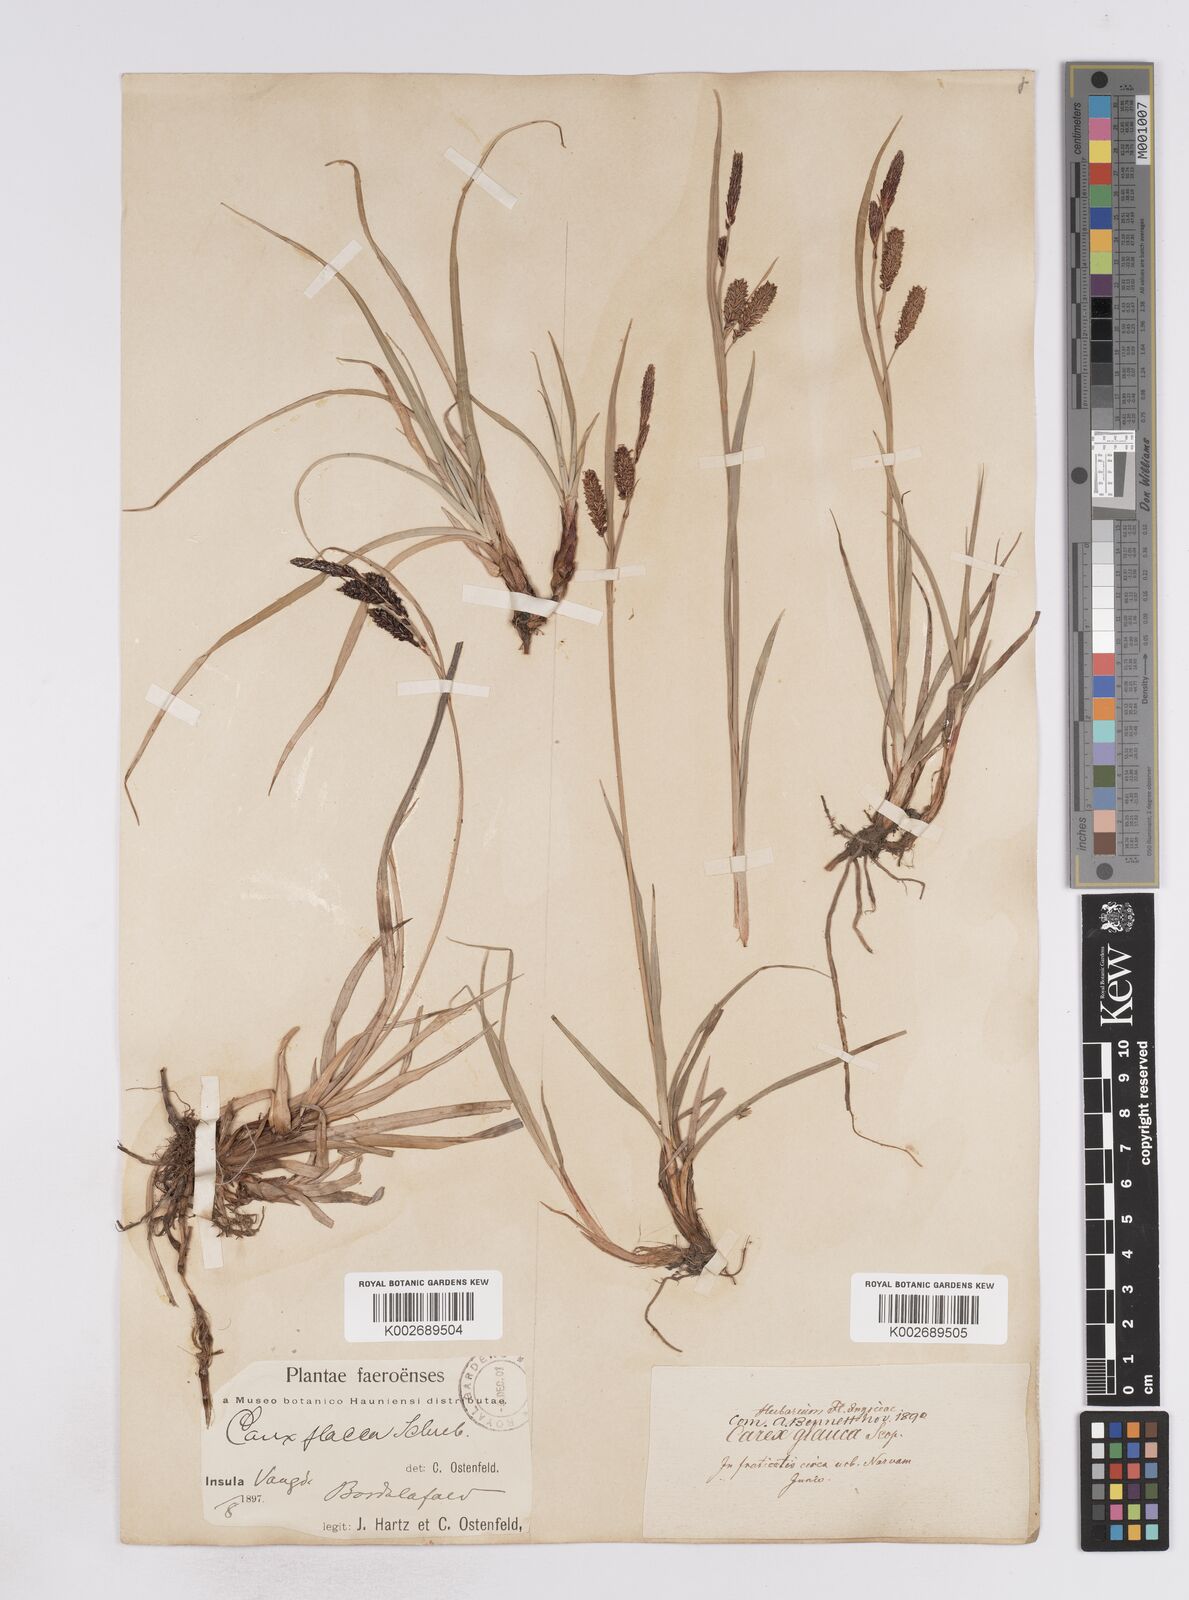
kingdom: Plantae
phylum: Tracheophyta
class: Liliopsida
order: Poales
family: Cyperaceae
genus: Carex
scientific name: Carex flacca
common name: Glaucous sedge
